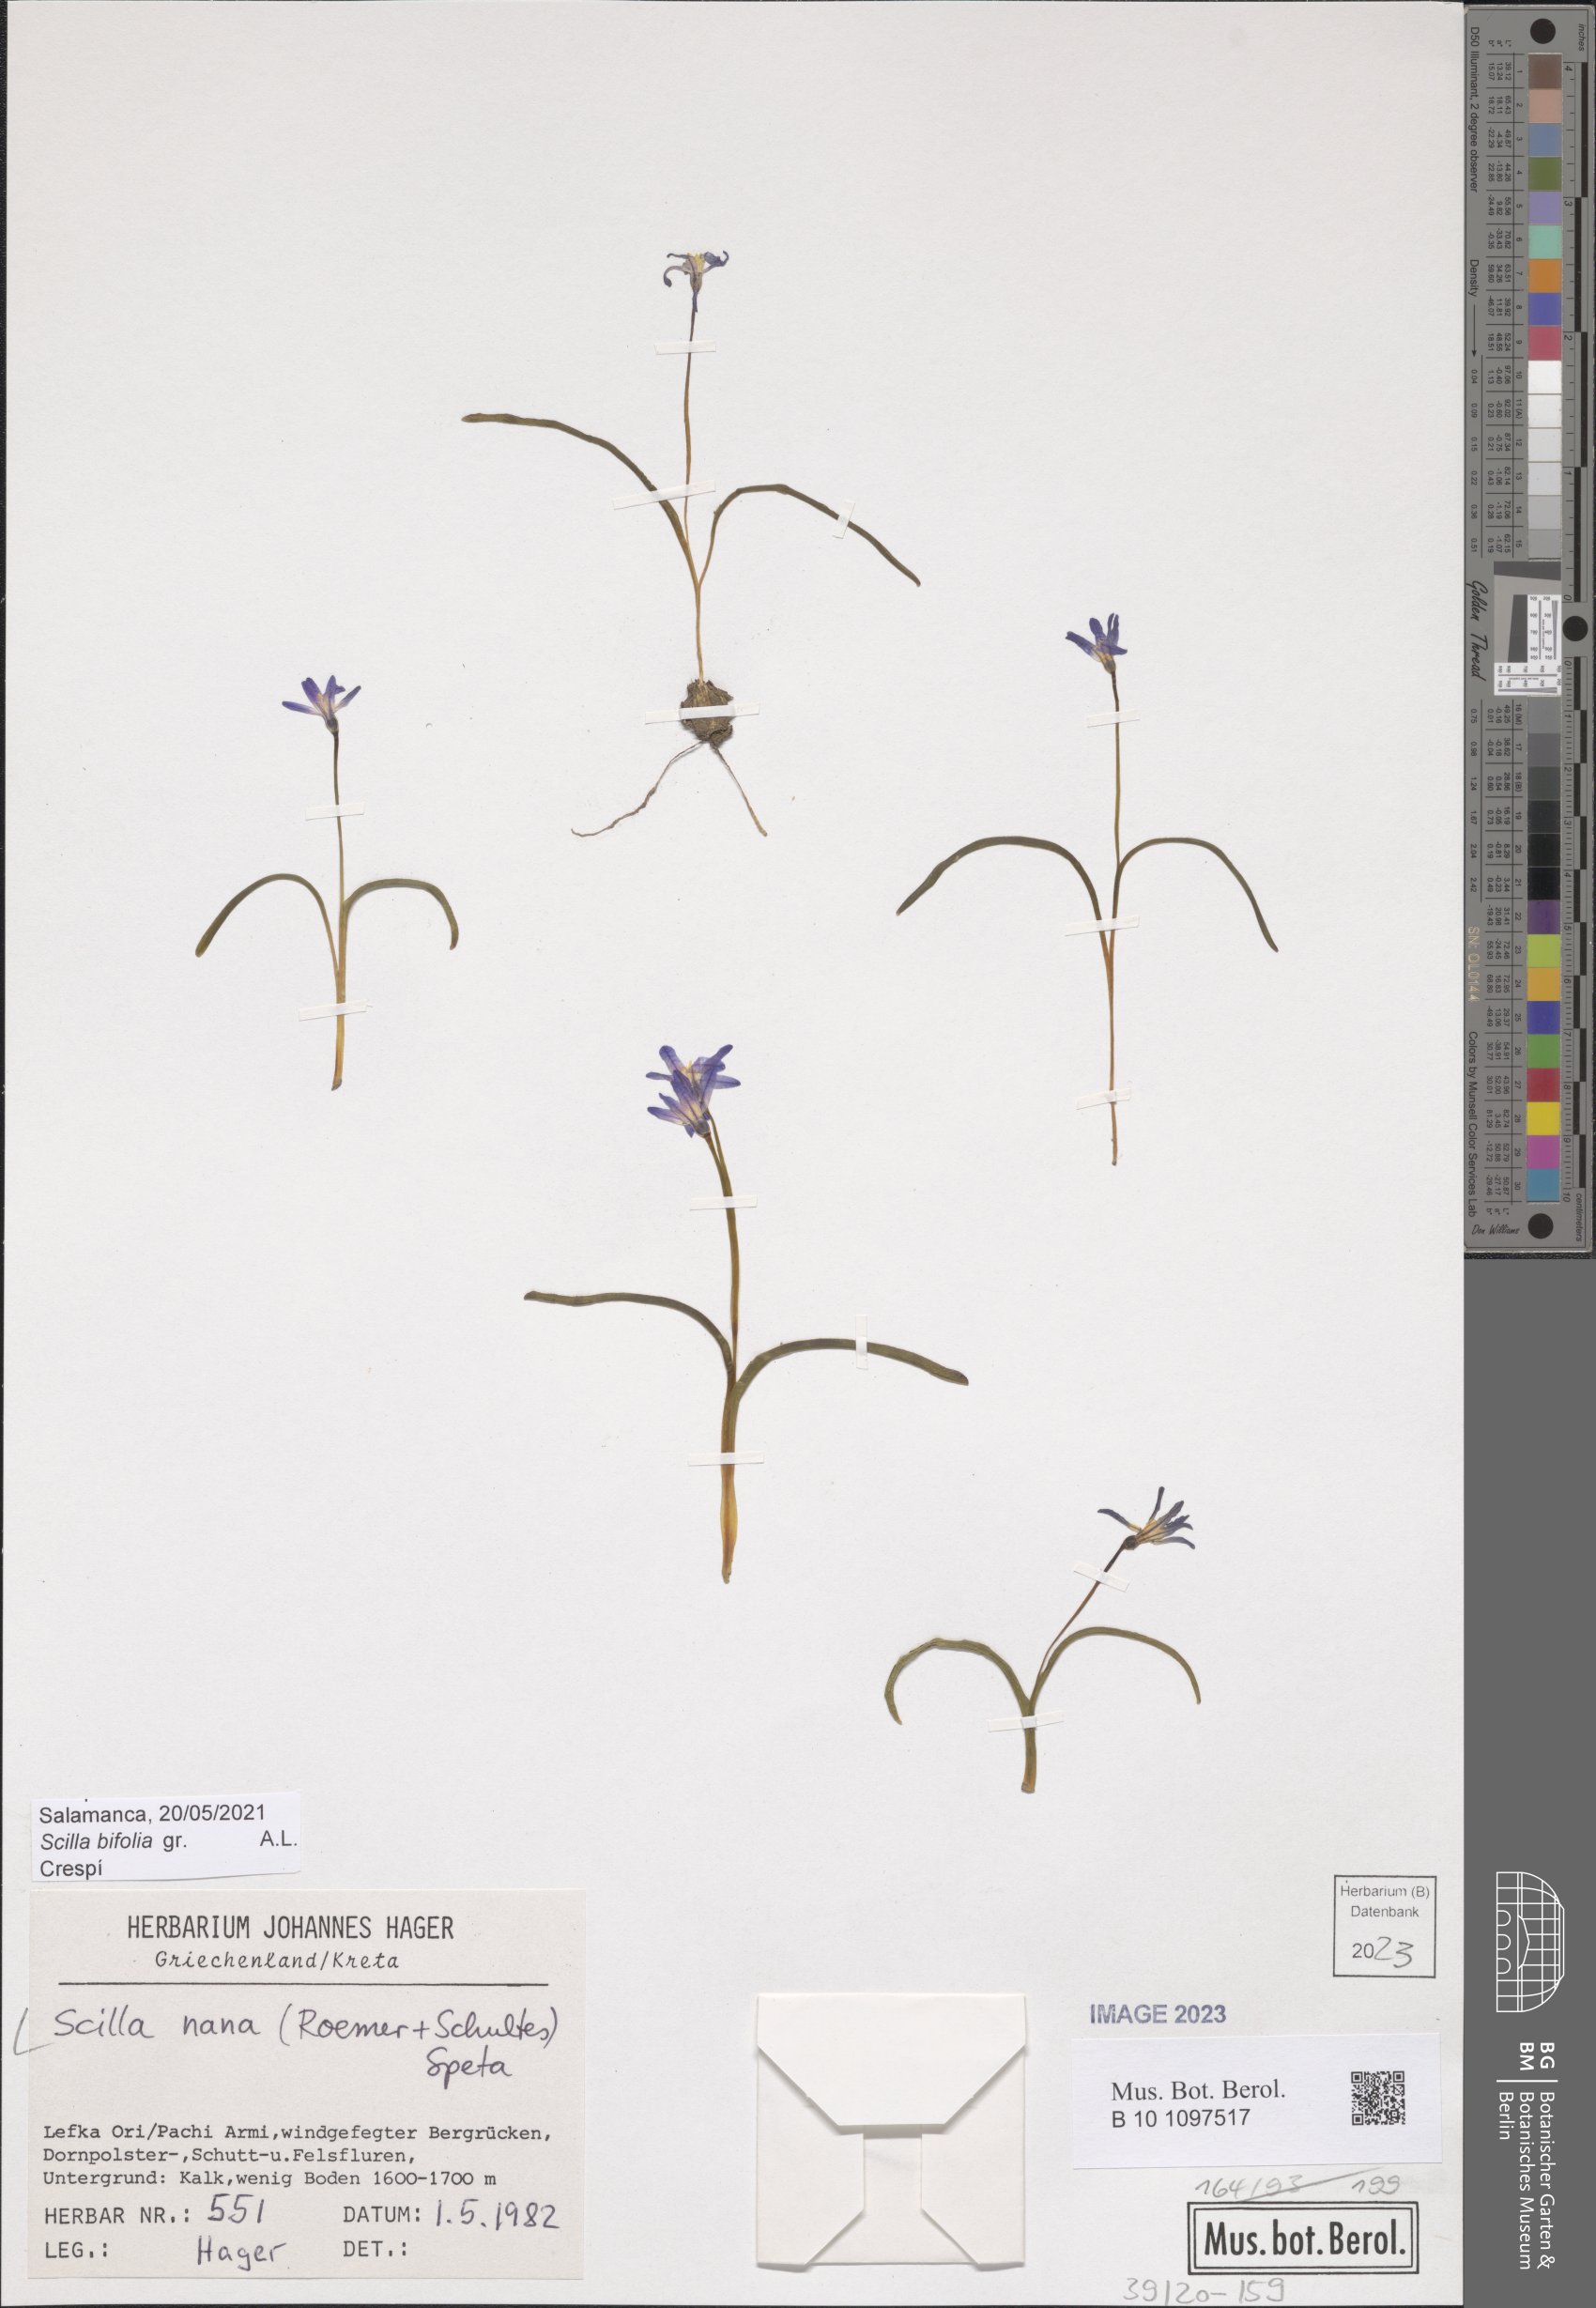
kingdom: Plantae
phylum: Tracheophyta
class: Liliopsida
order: Asparagales
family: Asparagaceae
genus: Scilla
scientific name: Scilla nana
